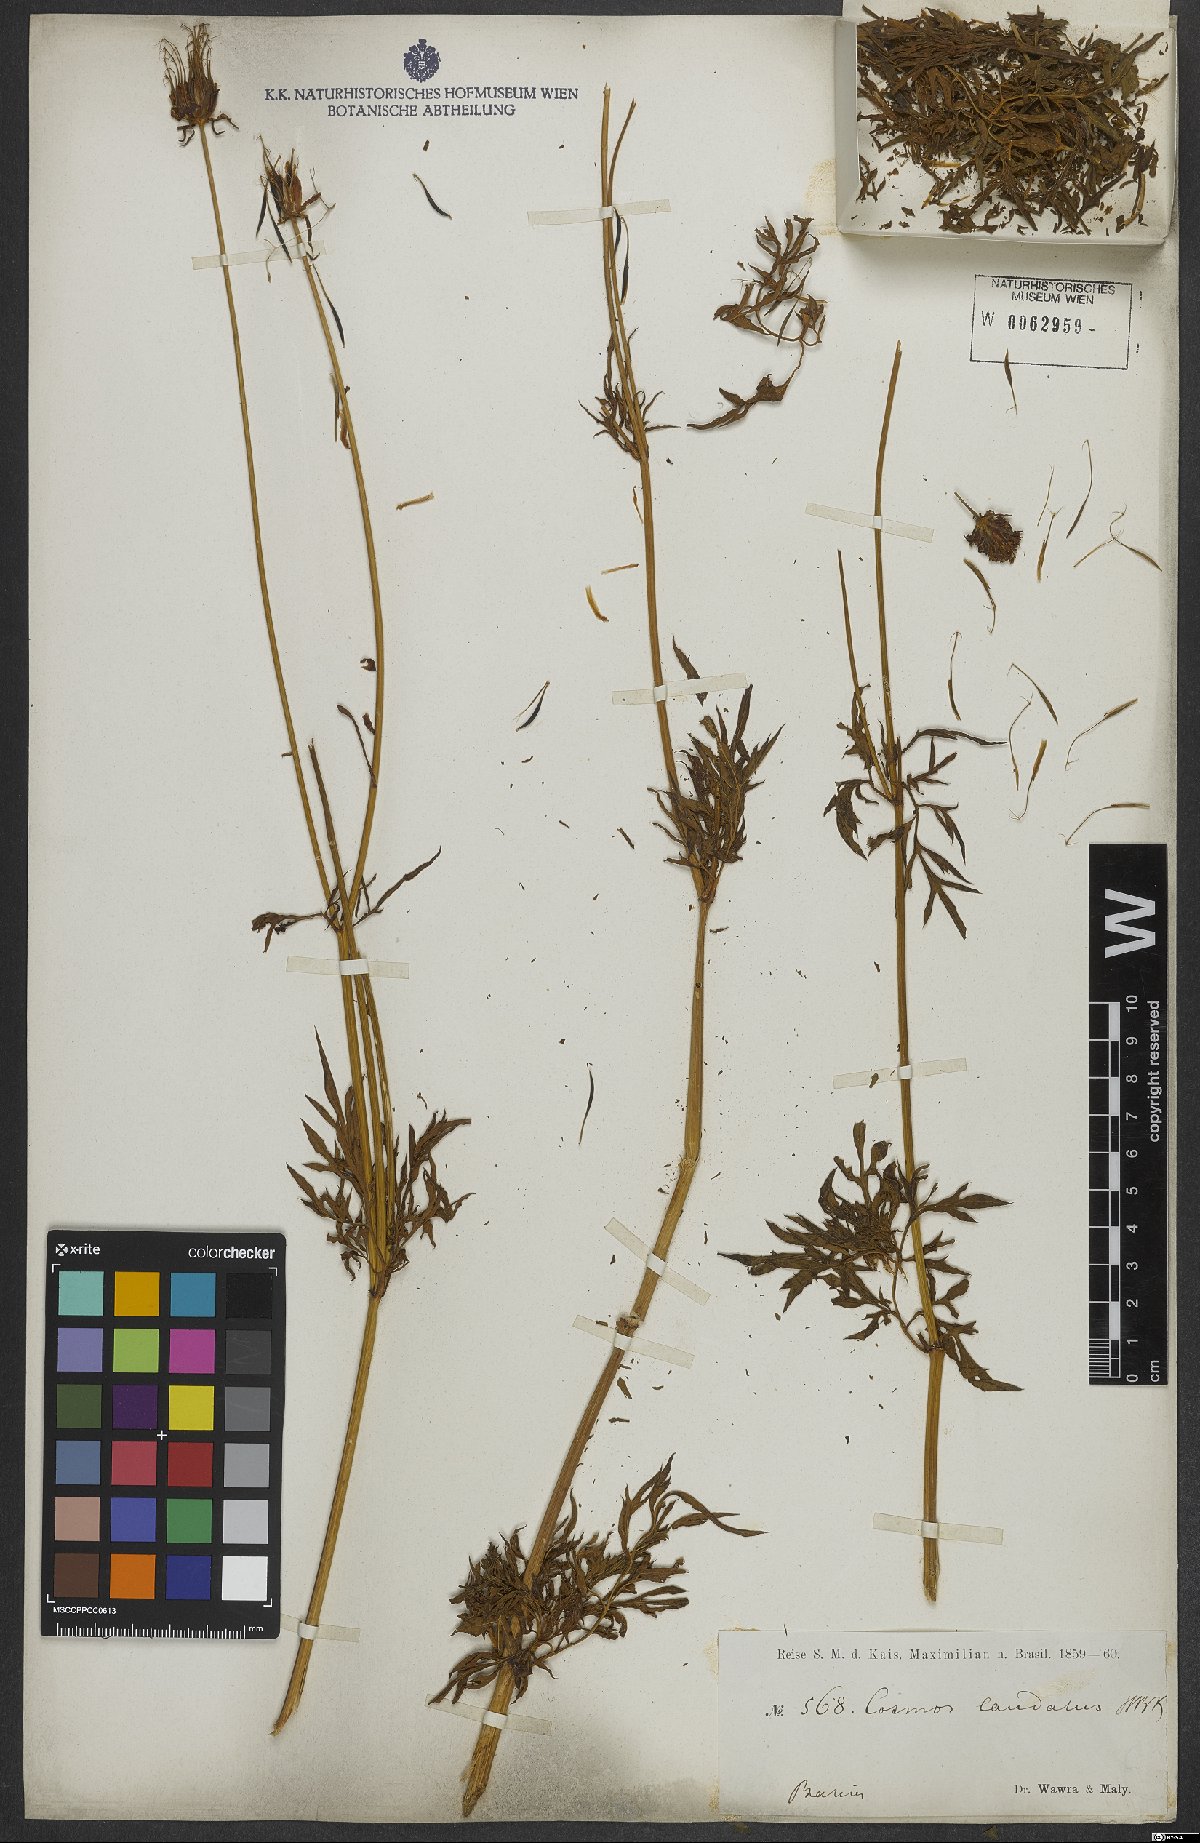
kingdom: Plantae
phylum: Tracheophyta
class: Magnoliopsida
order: Asterales
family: Asteraceae
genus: Cosmos
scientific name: Cosmos caudatus
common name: Wild cosmos
